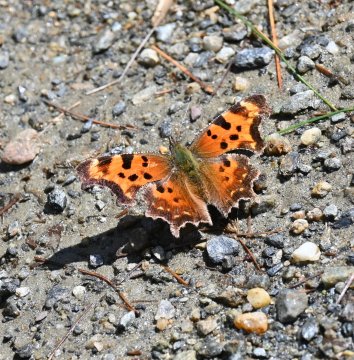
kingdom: Animalia
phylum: Arthropoda
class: Insecta
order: Lepidoptera
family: Nymphalidae
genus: Polygonia
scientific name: Polygonia comma
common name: Eastern Comma
